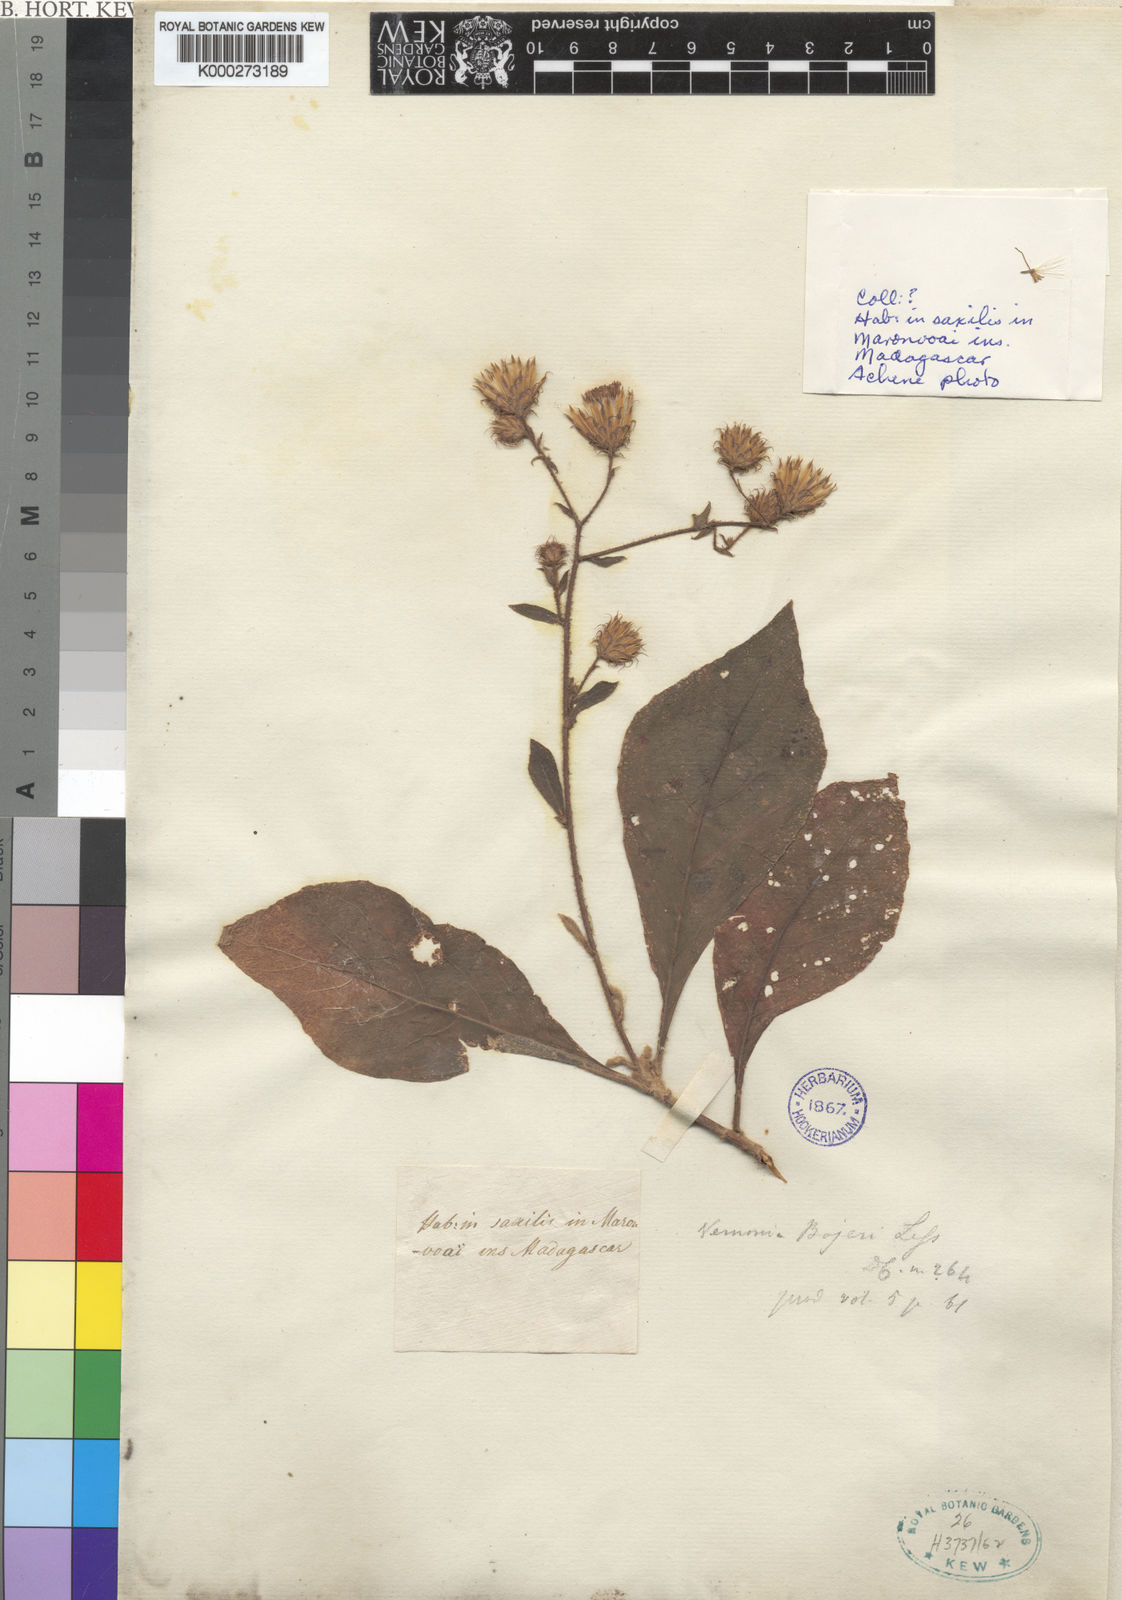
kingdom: Plantae
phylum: Tracheophyta
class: Magnoliopsida
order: Asterales
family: Asteraceae
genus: Vernonia
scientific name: Vernonia galamensis
